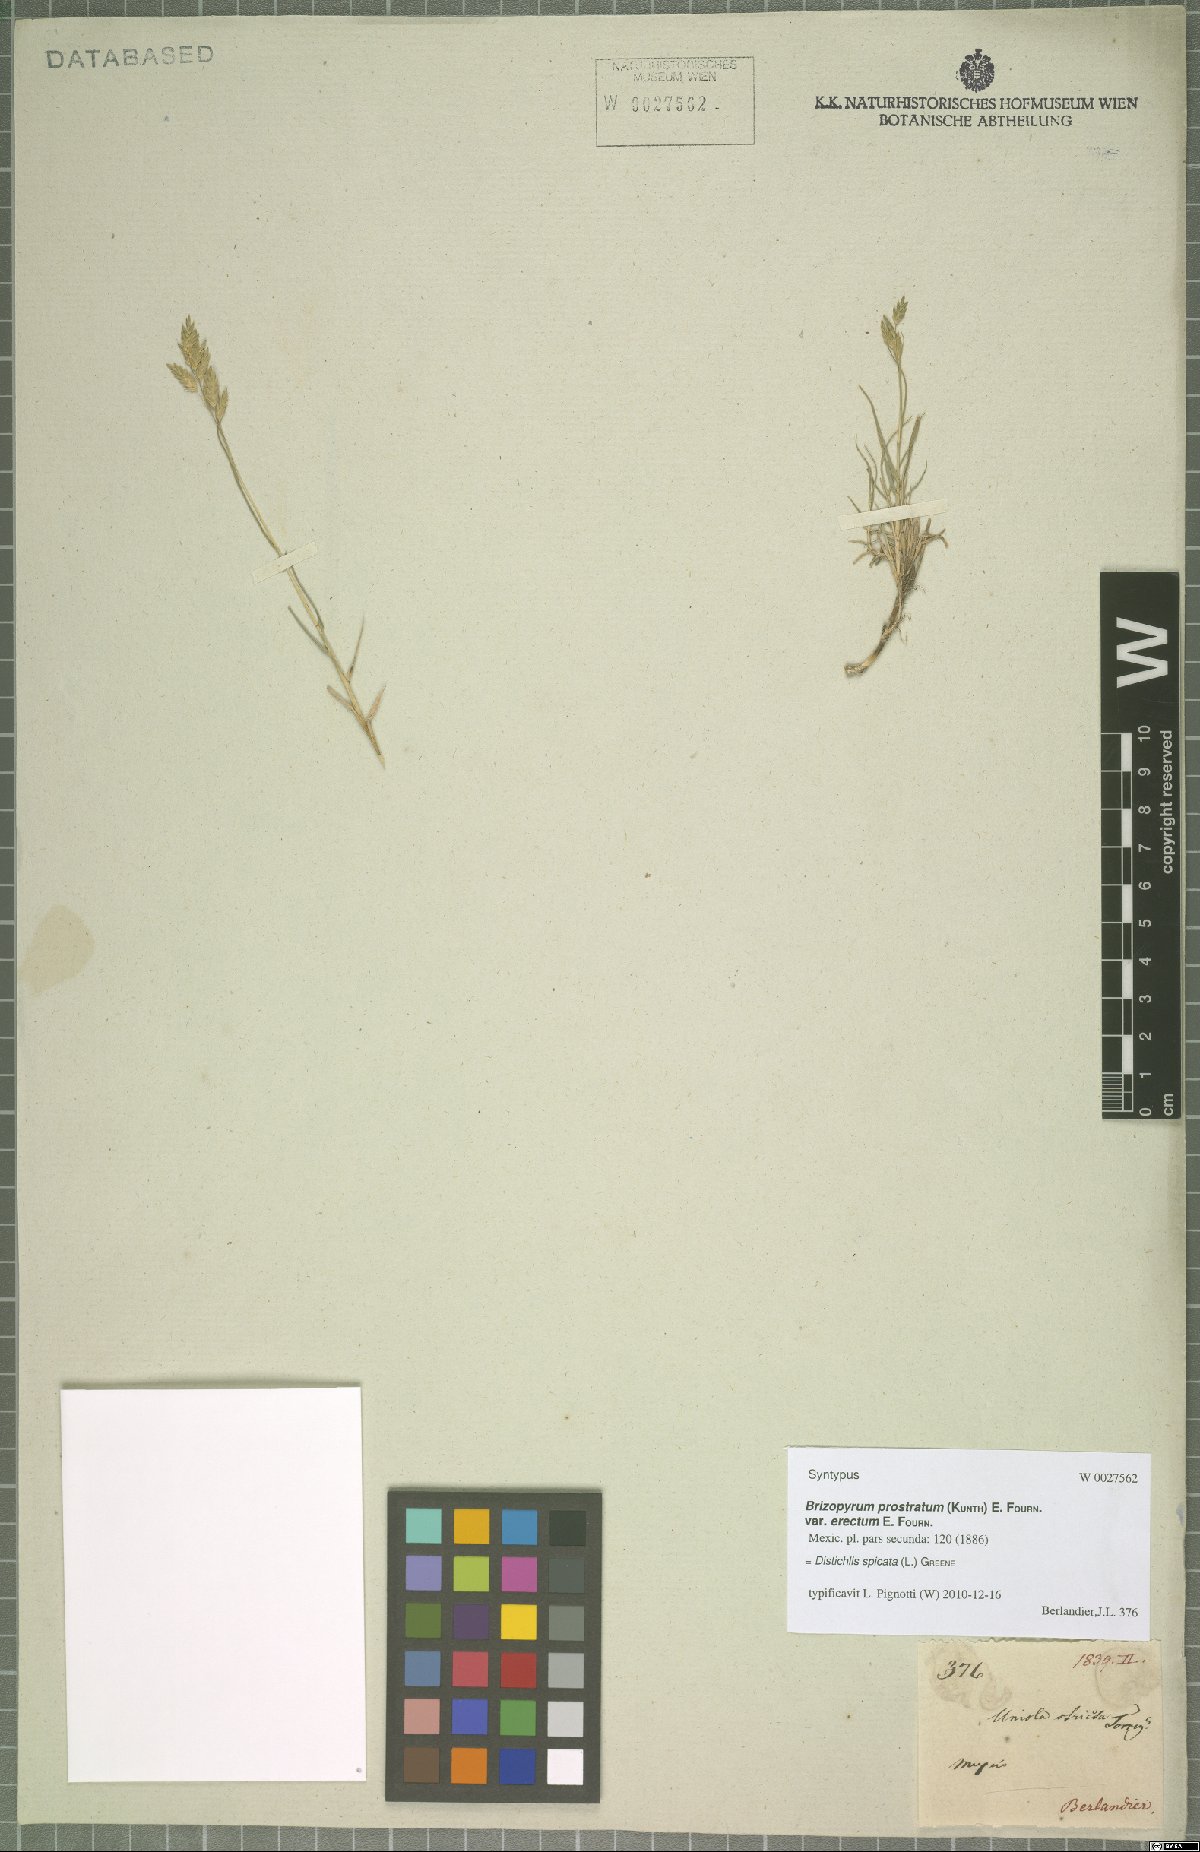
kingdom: Plantae
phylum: Tracheophyta
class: Liliopsida
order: Poales
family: Poaceae
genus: Distichlis
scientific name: Distichlis spicata
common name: Saltgrass
